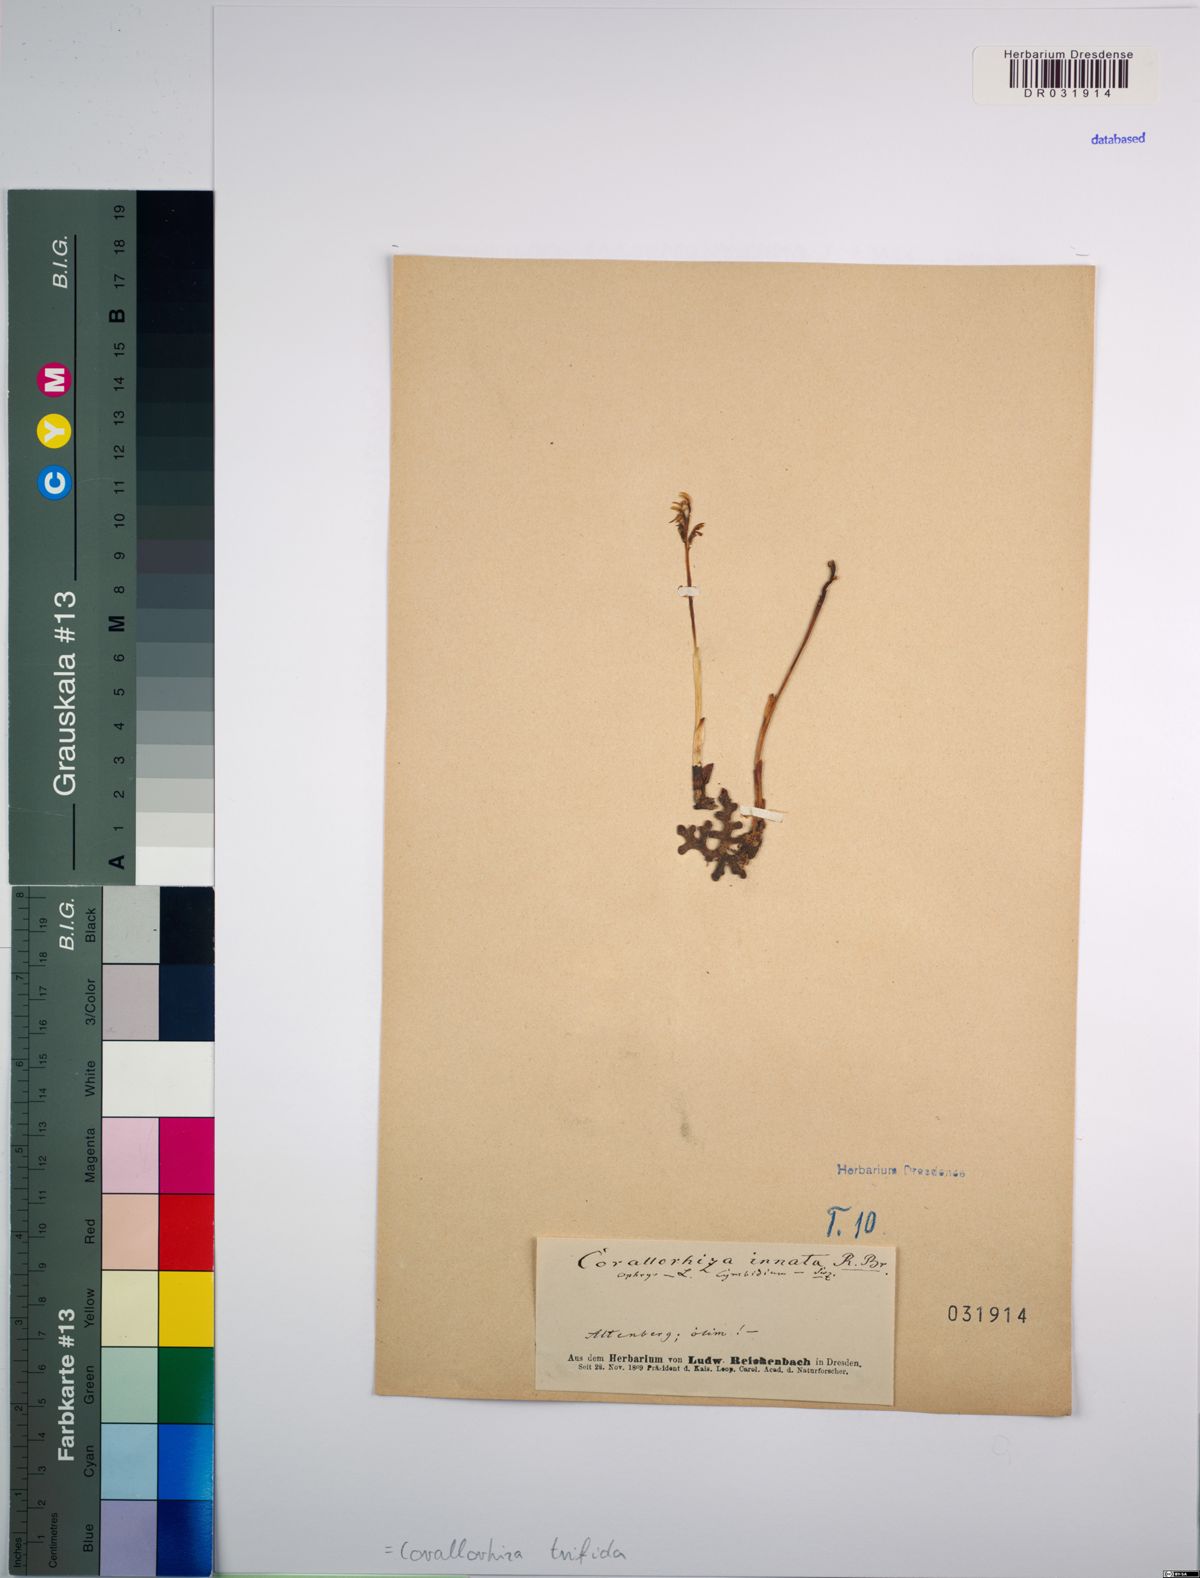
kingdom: Plantae
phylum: Tracheophyta
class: Liliopsida
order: Asparagales
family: Orchidaceae
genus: Corallorhiza
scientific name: Corallorhiza trifida
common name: Yellow coralroot
